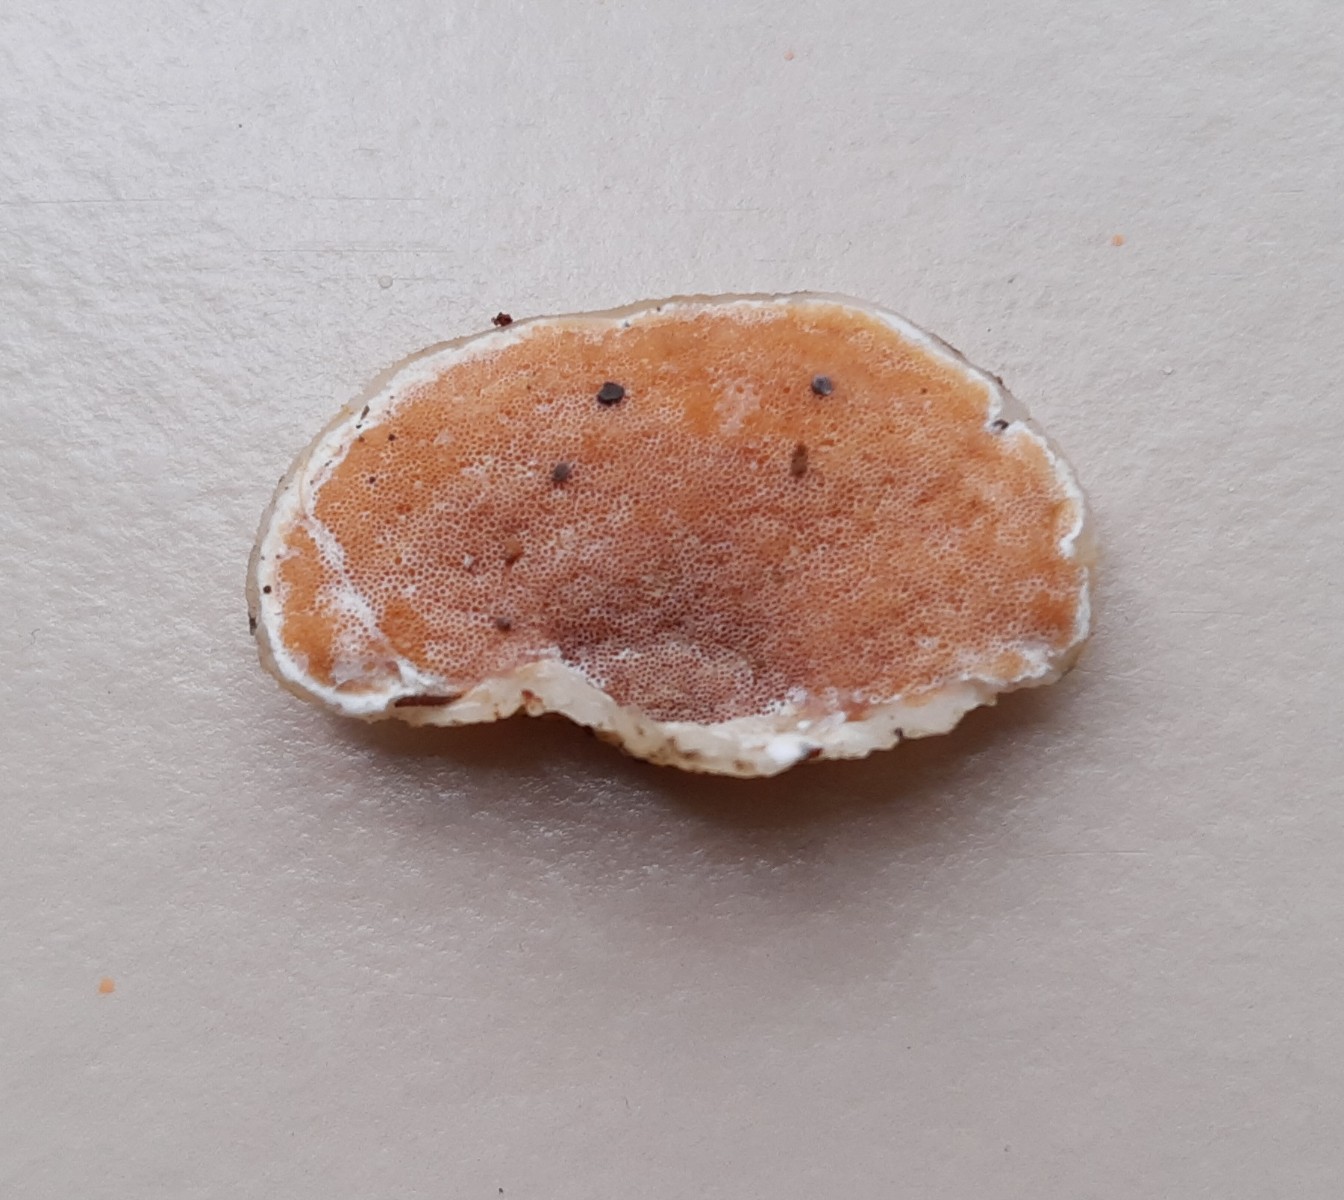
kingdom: Fungi
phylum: Basidiomycota
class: Agaricomycetes
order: Polyporales
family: Irpicaceae
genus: Vitreoporus
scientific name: Vitreoporus dichrous
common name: tofarvet foldporesvamp
